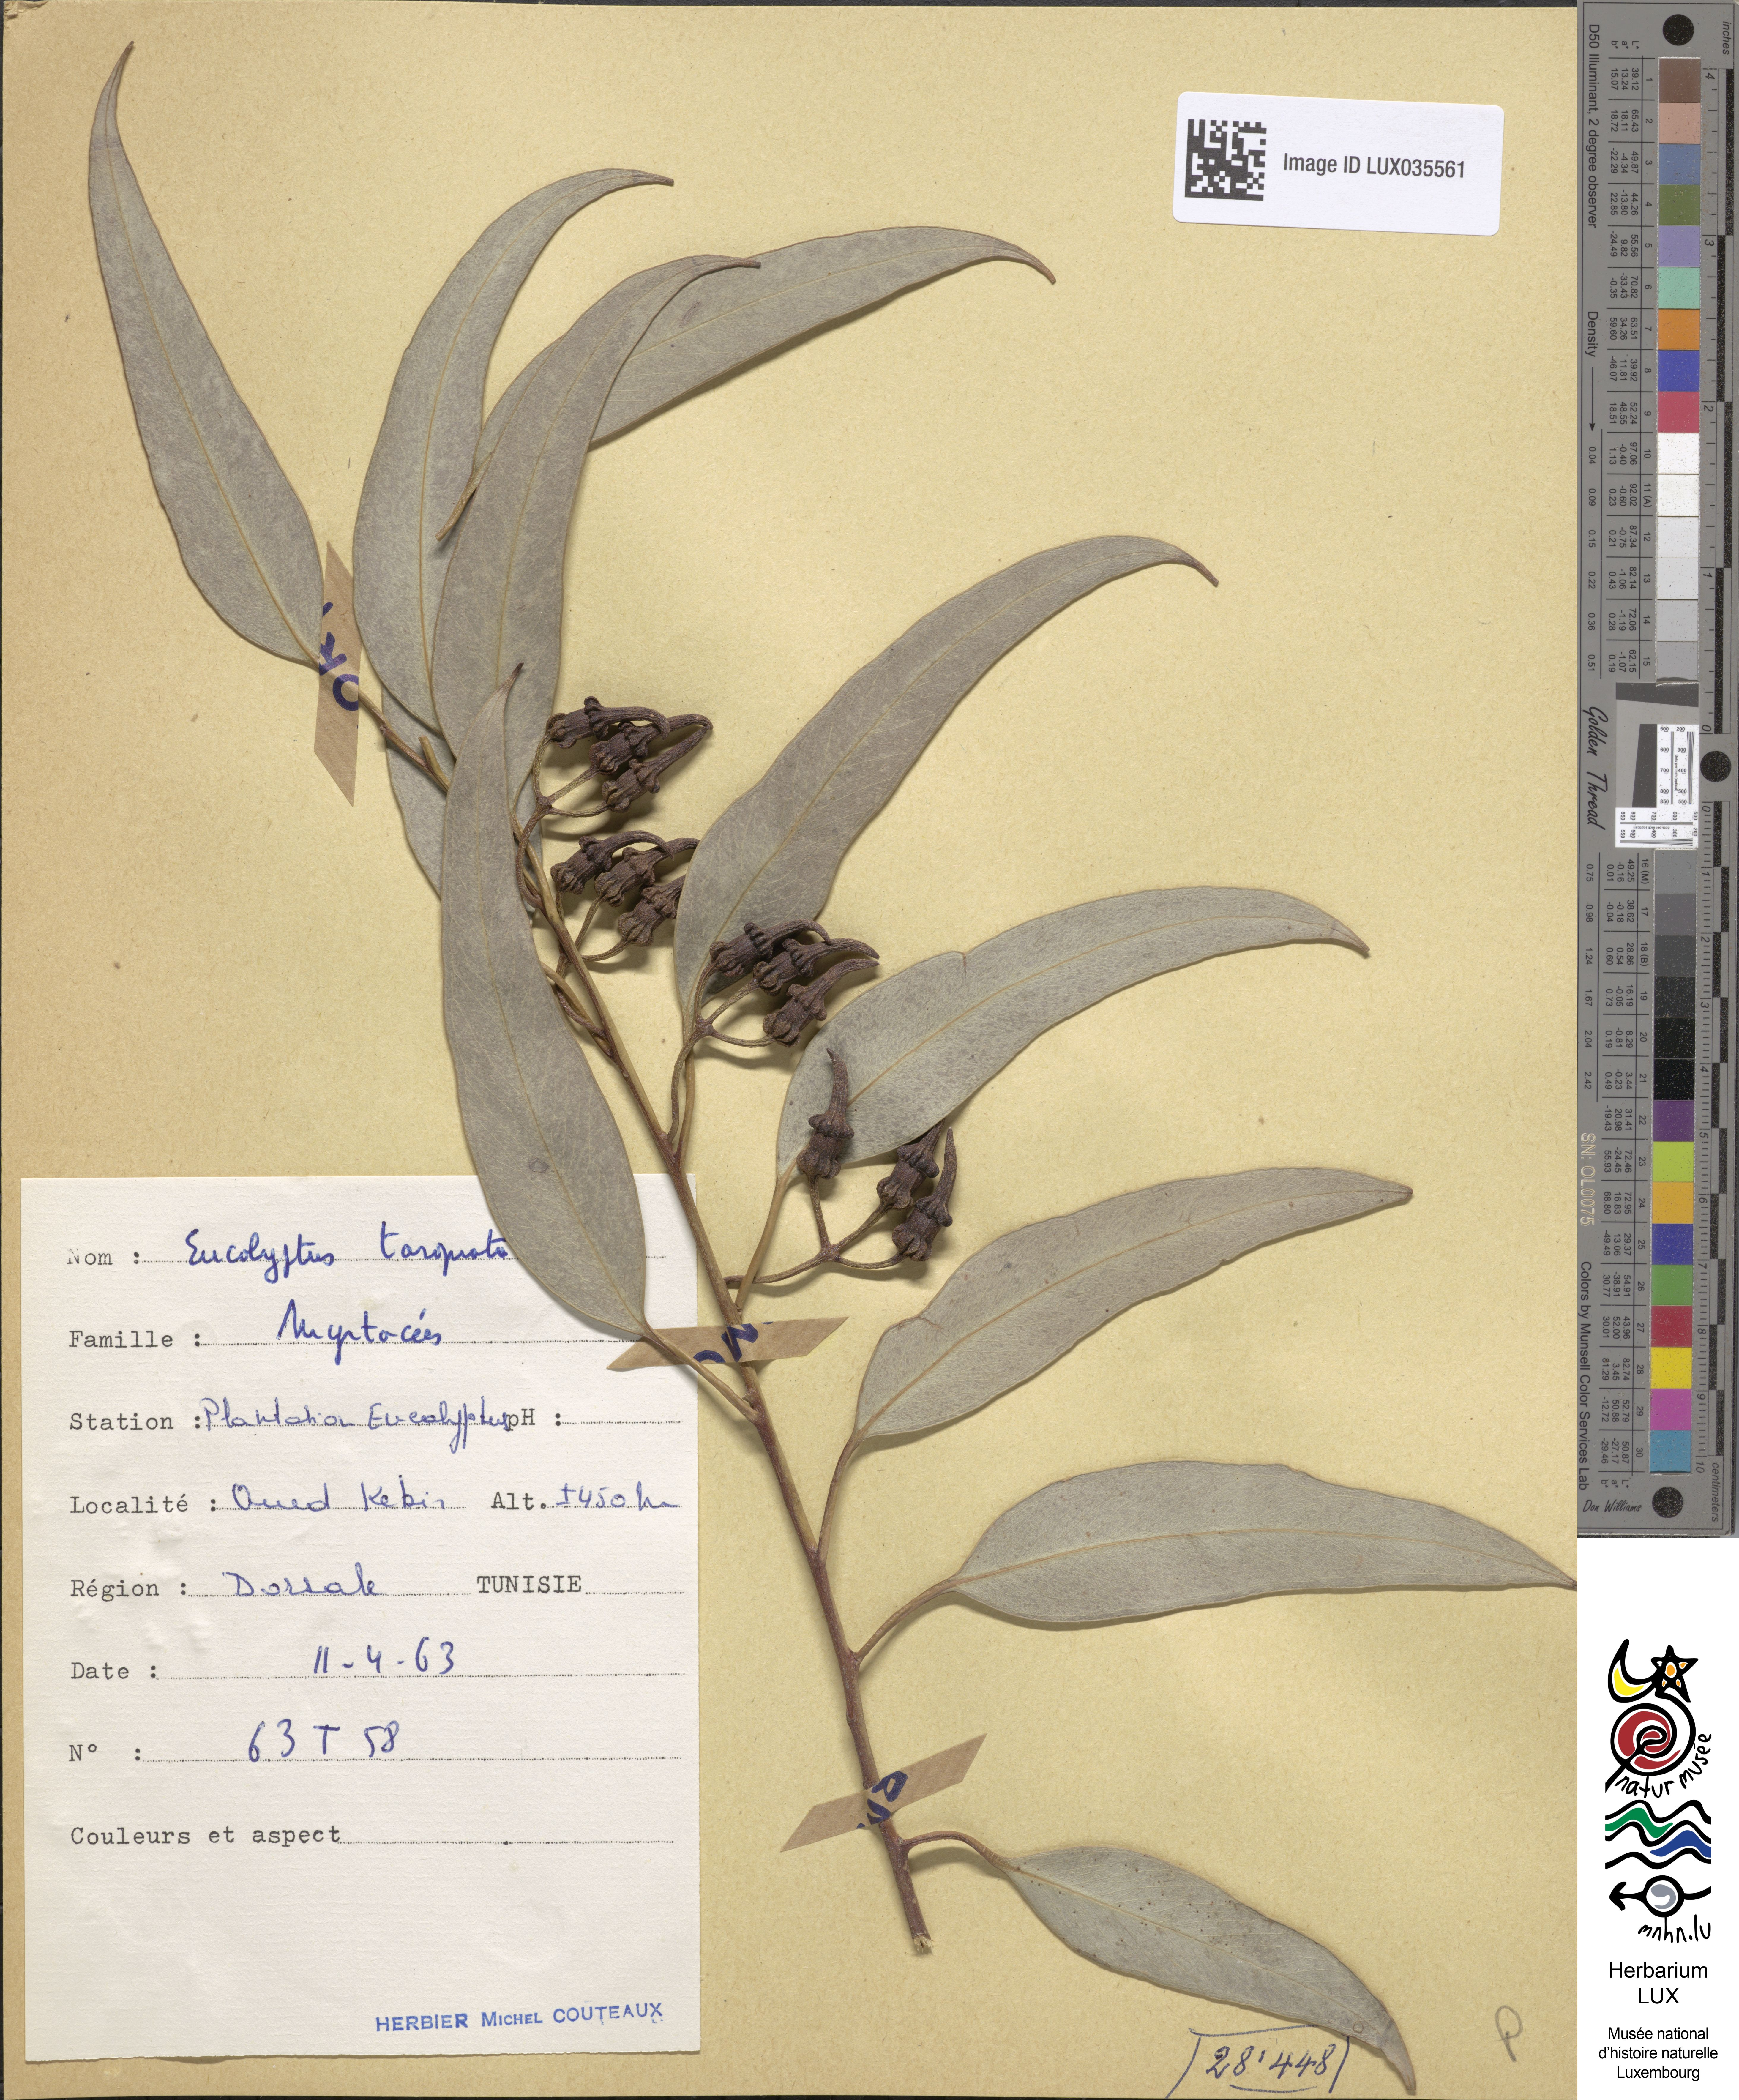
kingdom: Plantae
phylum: Tracheophyta
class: Magnoliopsida
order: Myrtales
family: Myrtaceae
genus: Eucalyptus
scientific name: Eucalyptus torquata
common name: Coral gum
